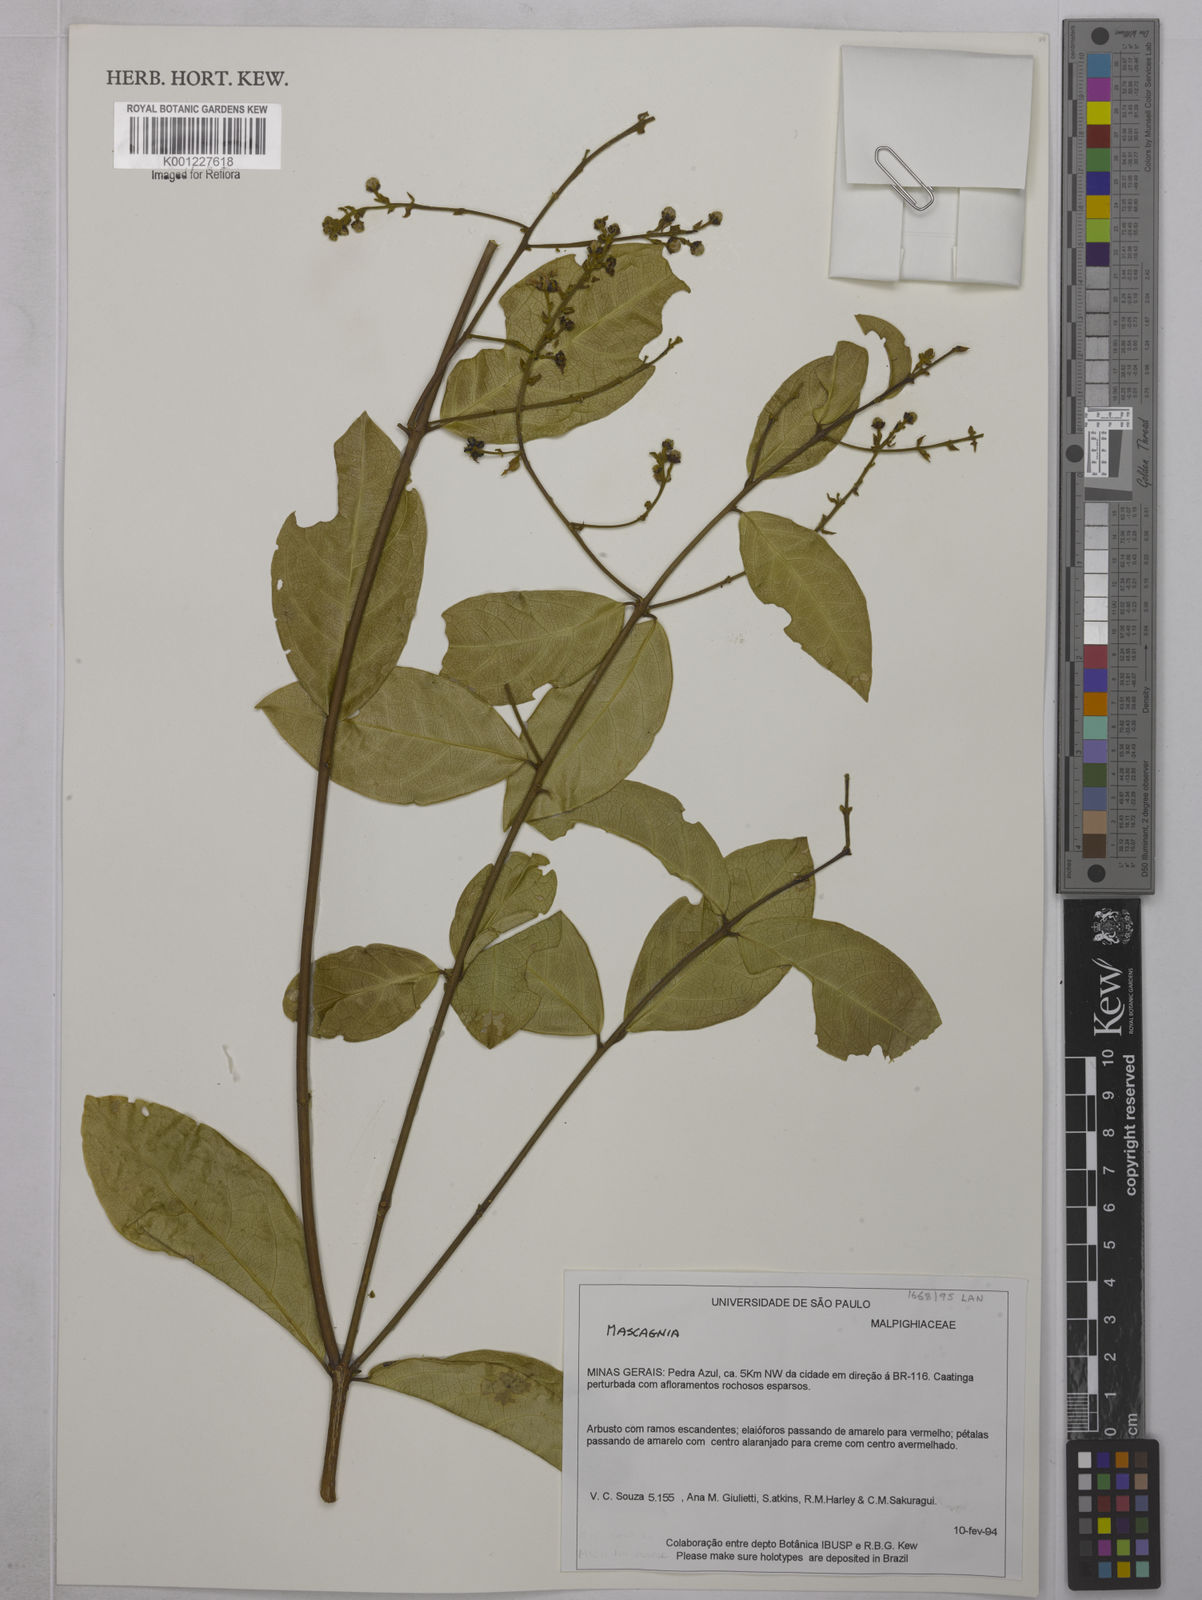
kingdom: Plantae
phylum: Tracheophyta
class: Magnoliopsida
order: Malpighiales
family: Malpighiaceae
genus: Mascagnia
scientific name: Mascagnia
